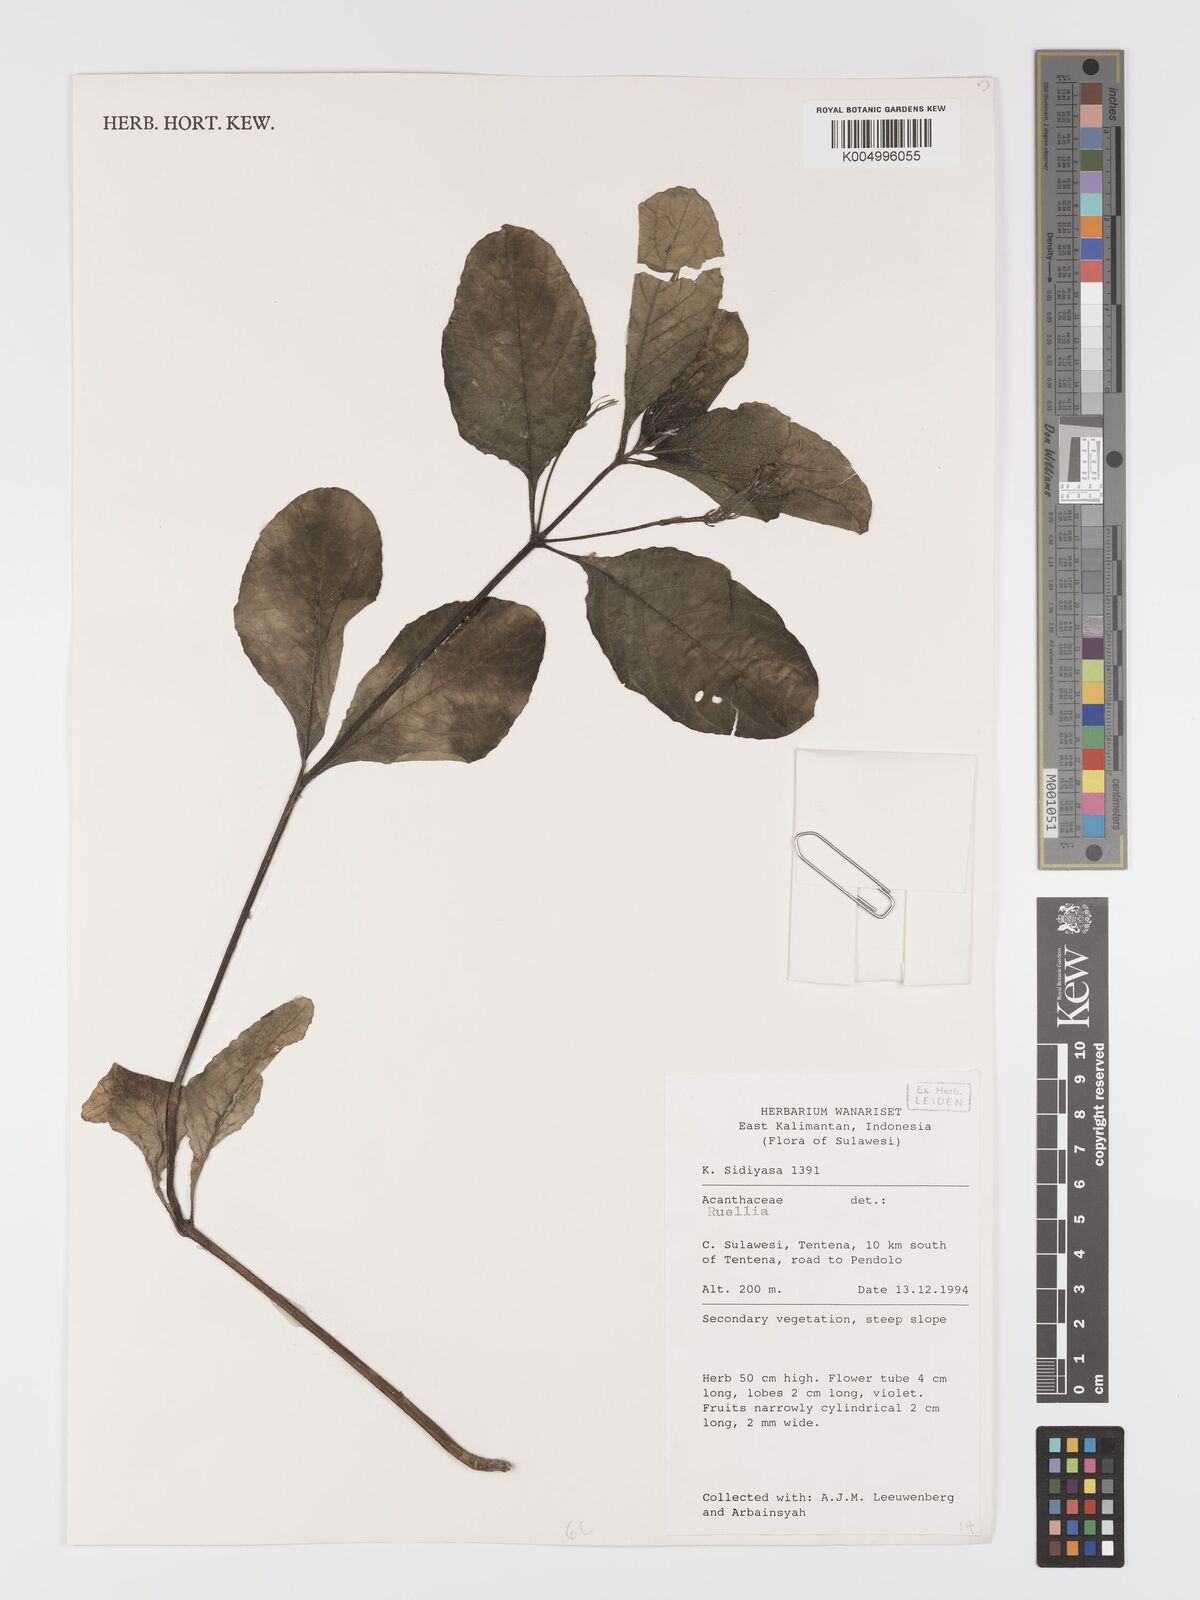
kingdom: Plantae
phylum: Tracheophyta
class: Magnoliopsida
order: Lamiales
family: Acanthaceae
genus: Ruellia
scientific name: Ruellia tuberosa
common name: Devil's bit
